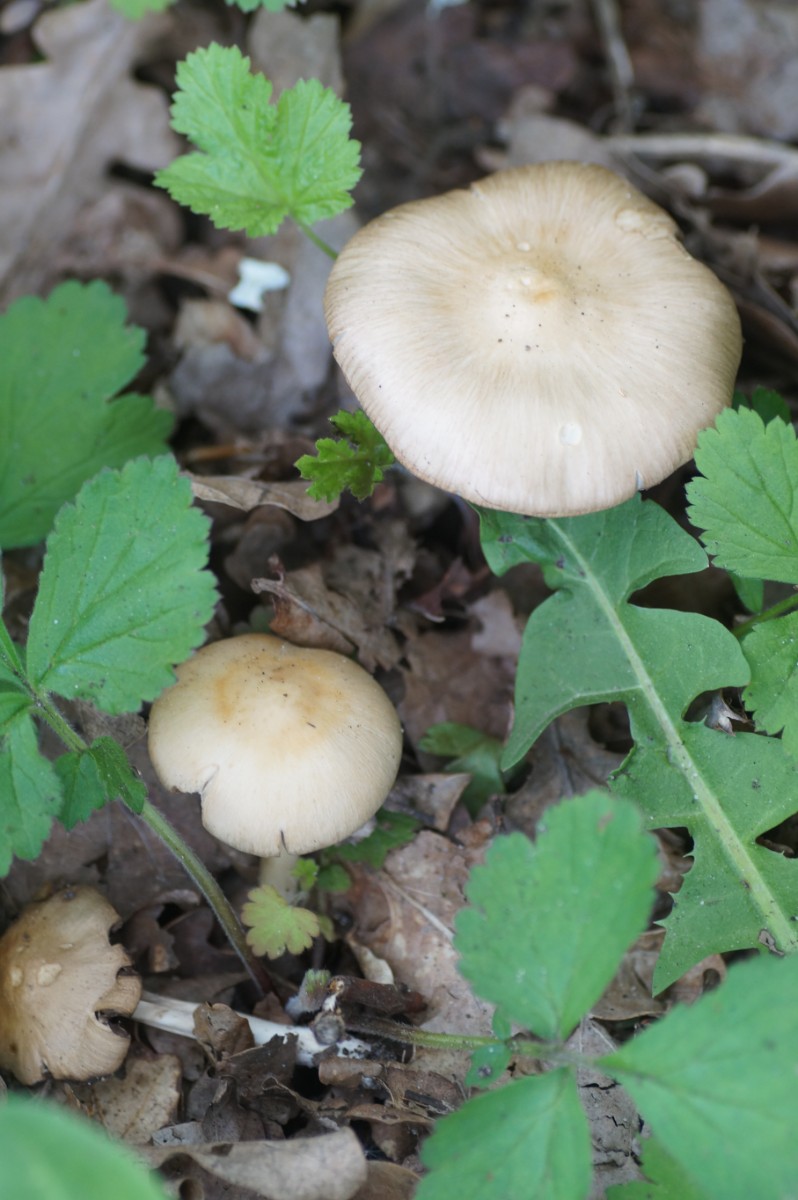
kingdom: Fungi
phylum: Basidiomycota
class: Agaricomycetes
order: Agaricales
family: Psathyrellaceae
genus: Psathyrella
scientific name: Psathyrella
